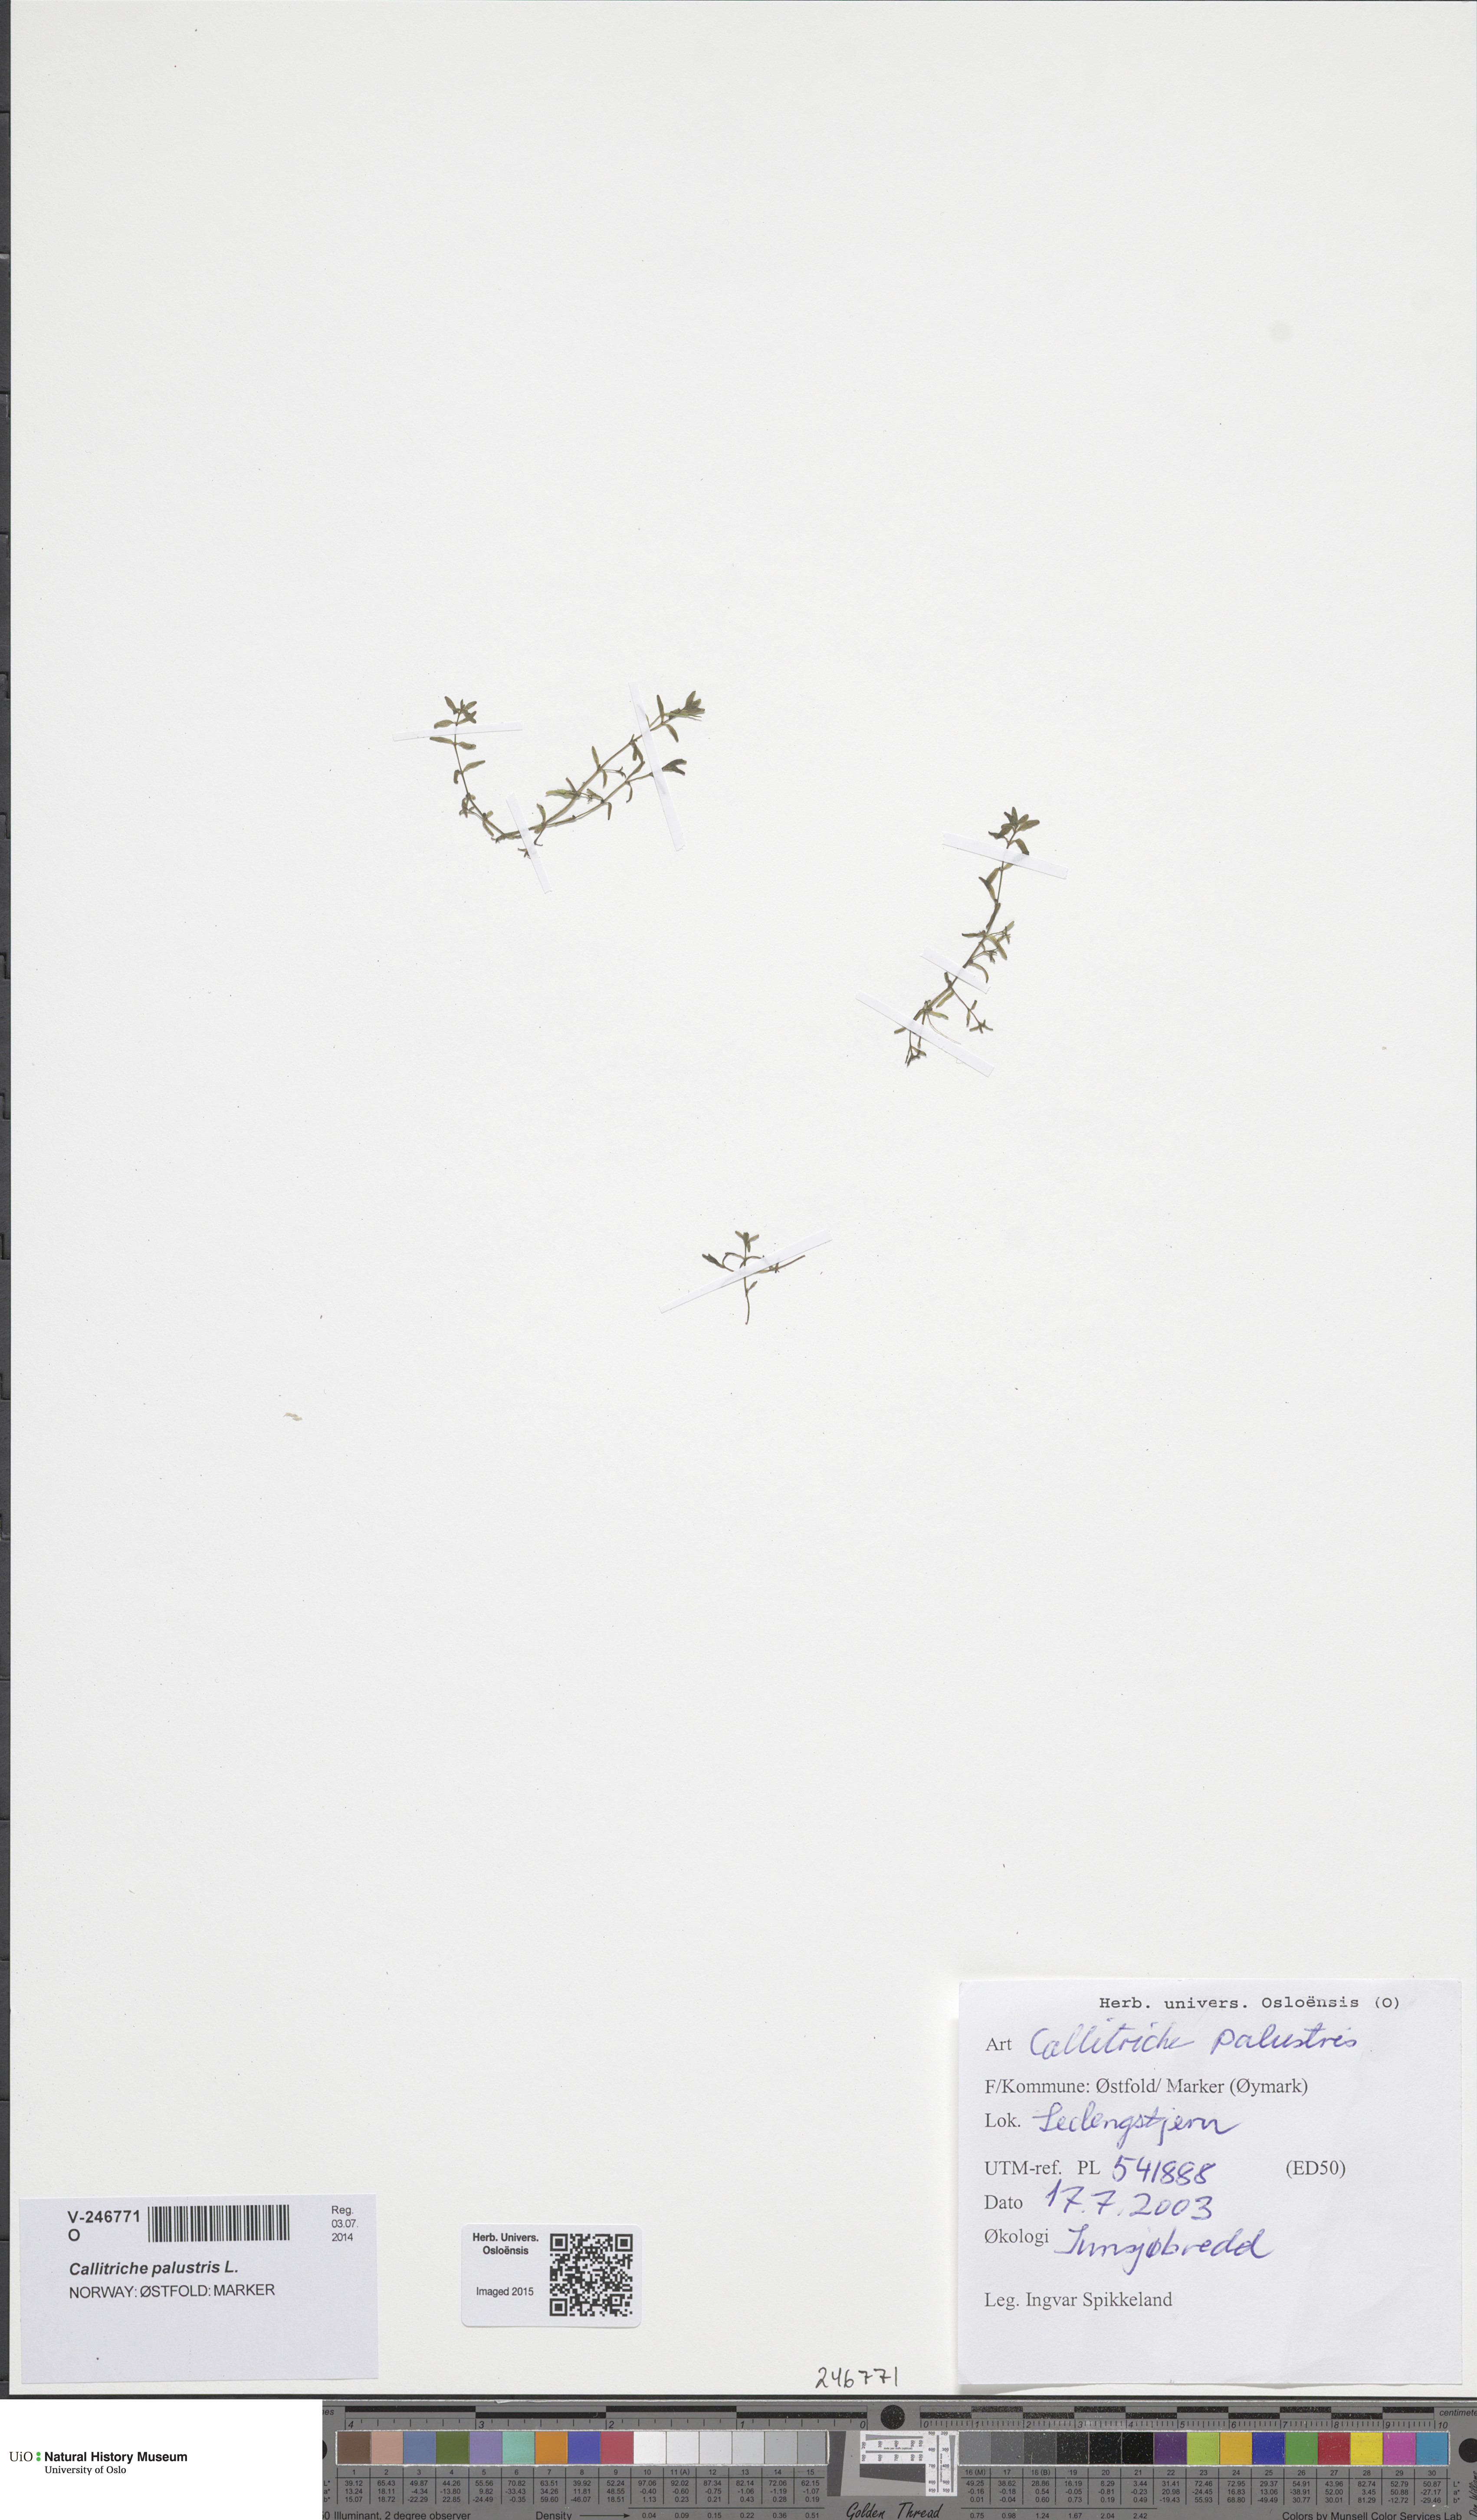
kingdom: Plantae
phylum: Tracheophyta
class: Magnoliopsida
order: Lamiales
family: Plantaginaceae
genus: Callitriche
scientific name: Callitriche palustris
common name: Spring water-starwort
